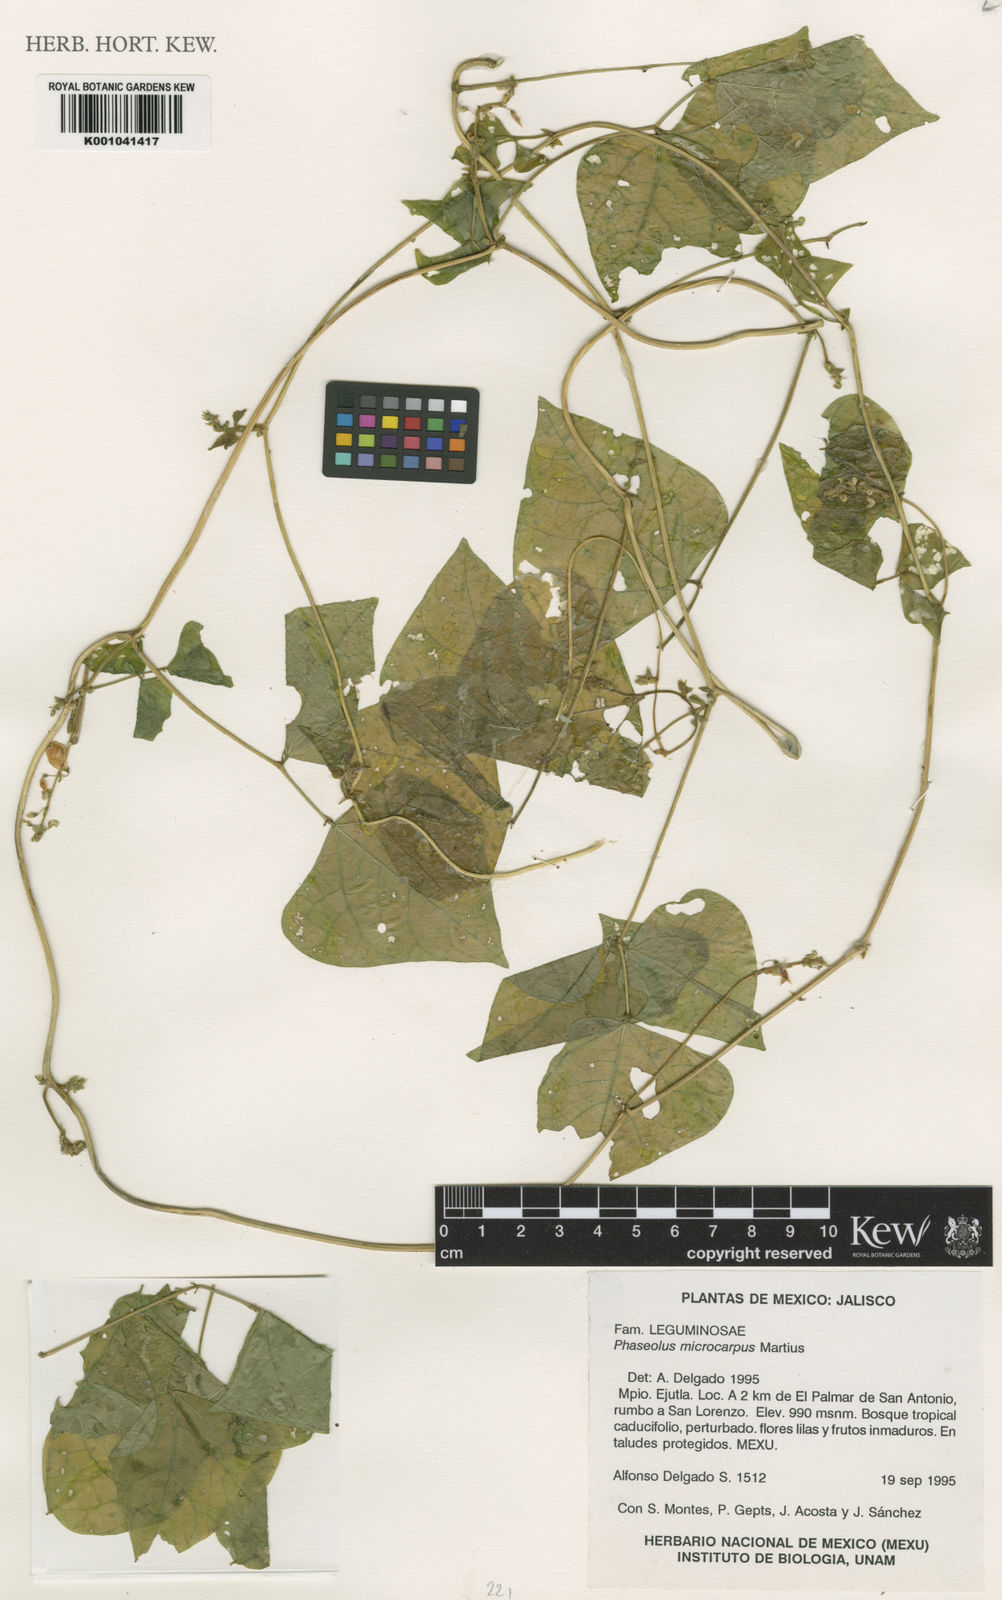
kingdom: Plantae
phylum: Tracheophyta
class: Magnoliopsida
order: Fabales
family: Fabaceae
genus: Phaseolus
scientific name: Phaseolus microcarpus
